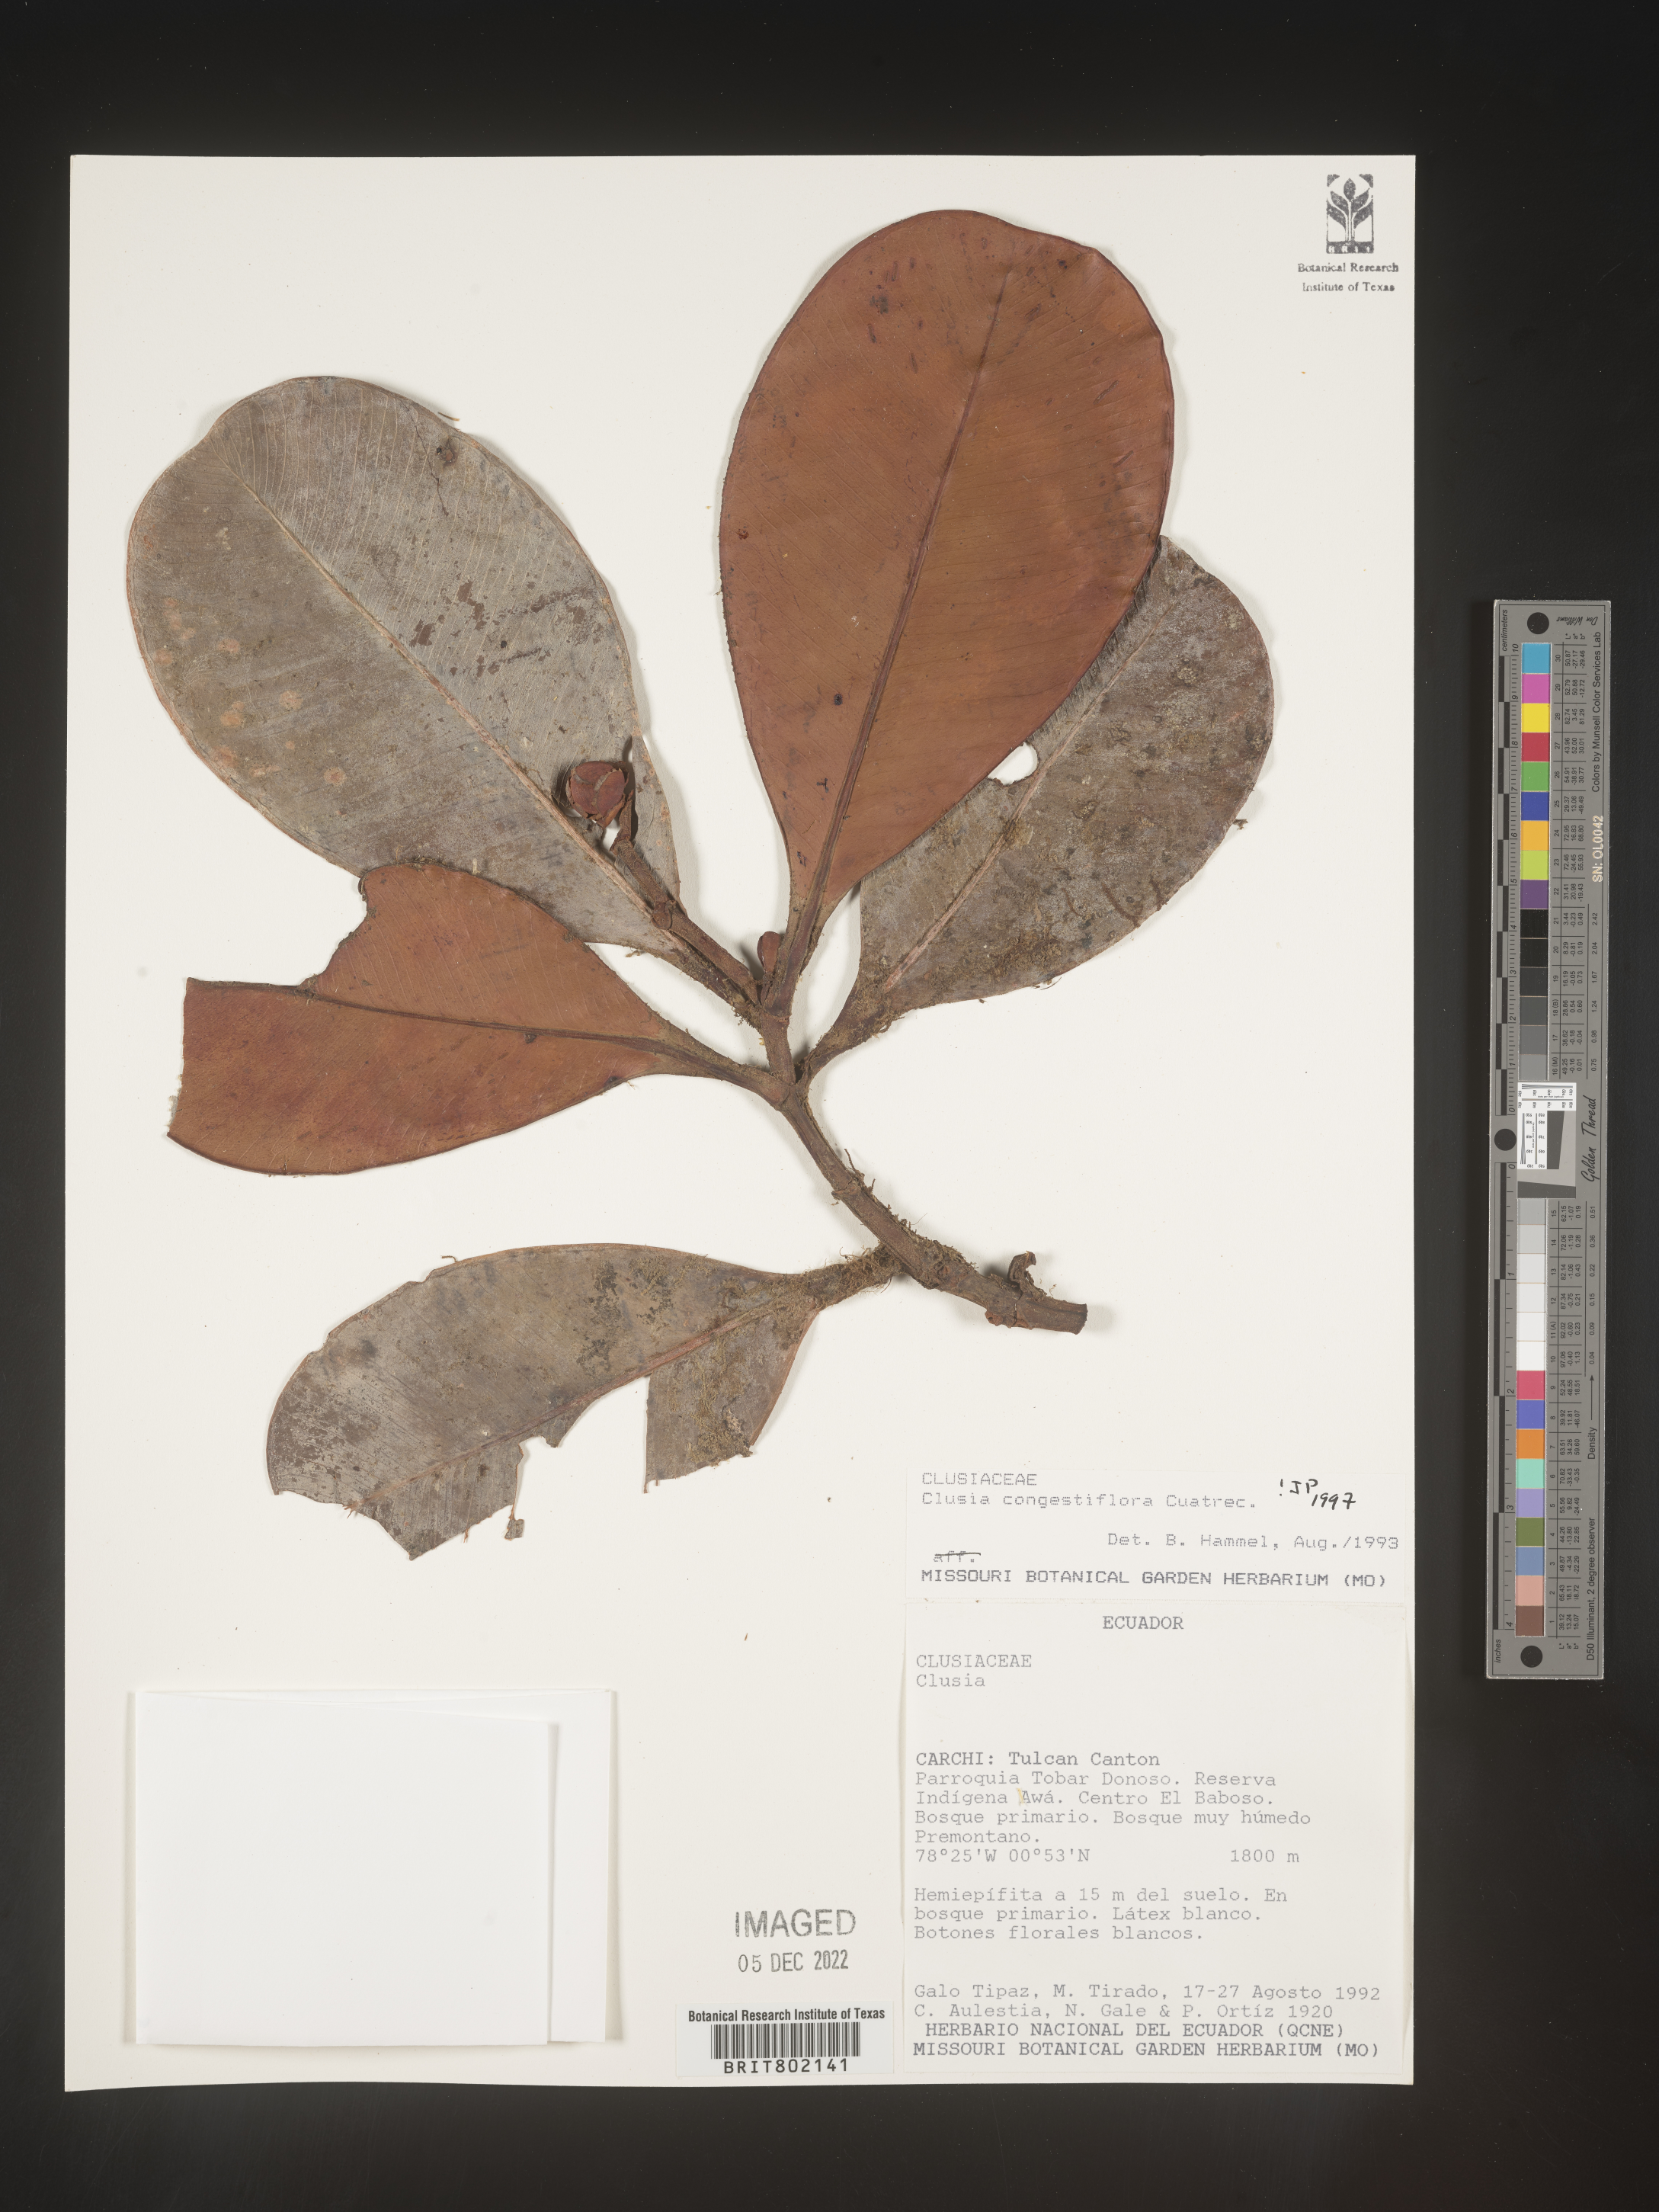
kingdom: Plantae
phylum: Tracheophyta
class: Magnoliopsida
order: Malpighiales
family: Clusiaceae
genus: Clusia
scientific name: Clusia
